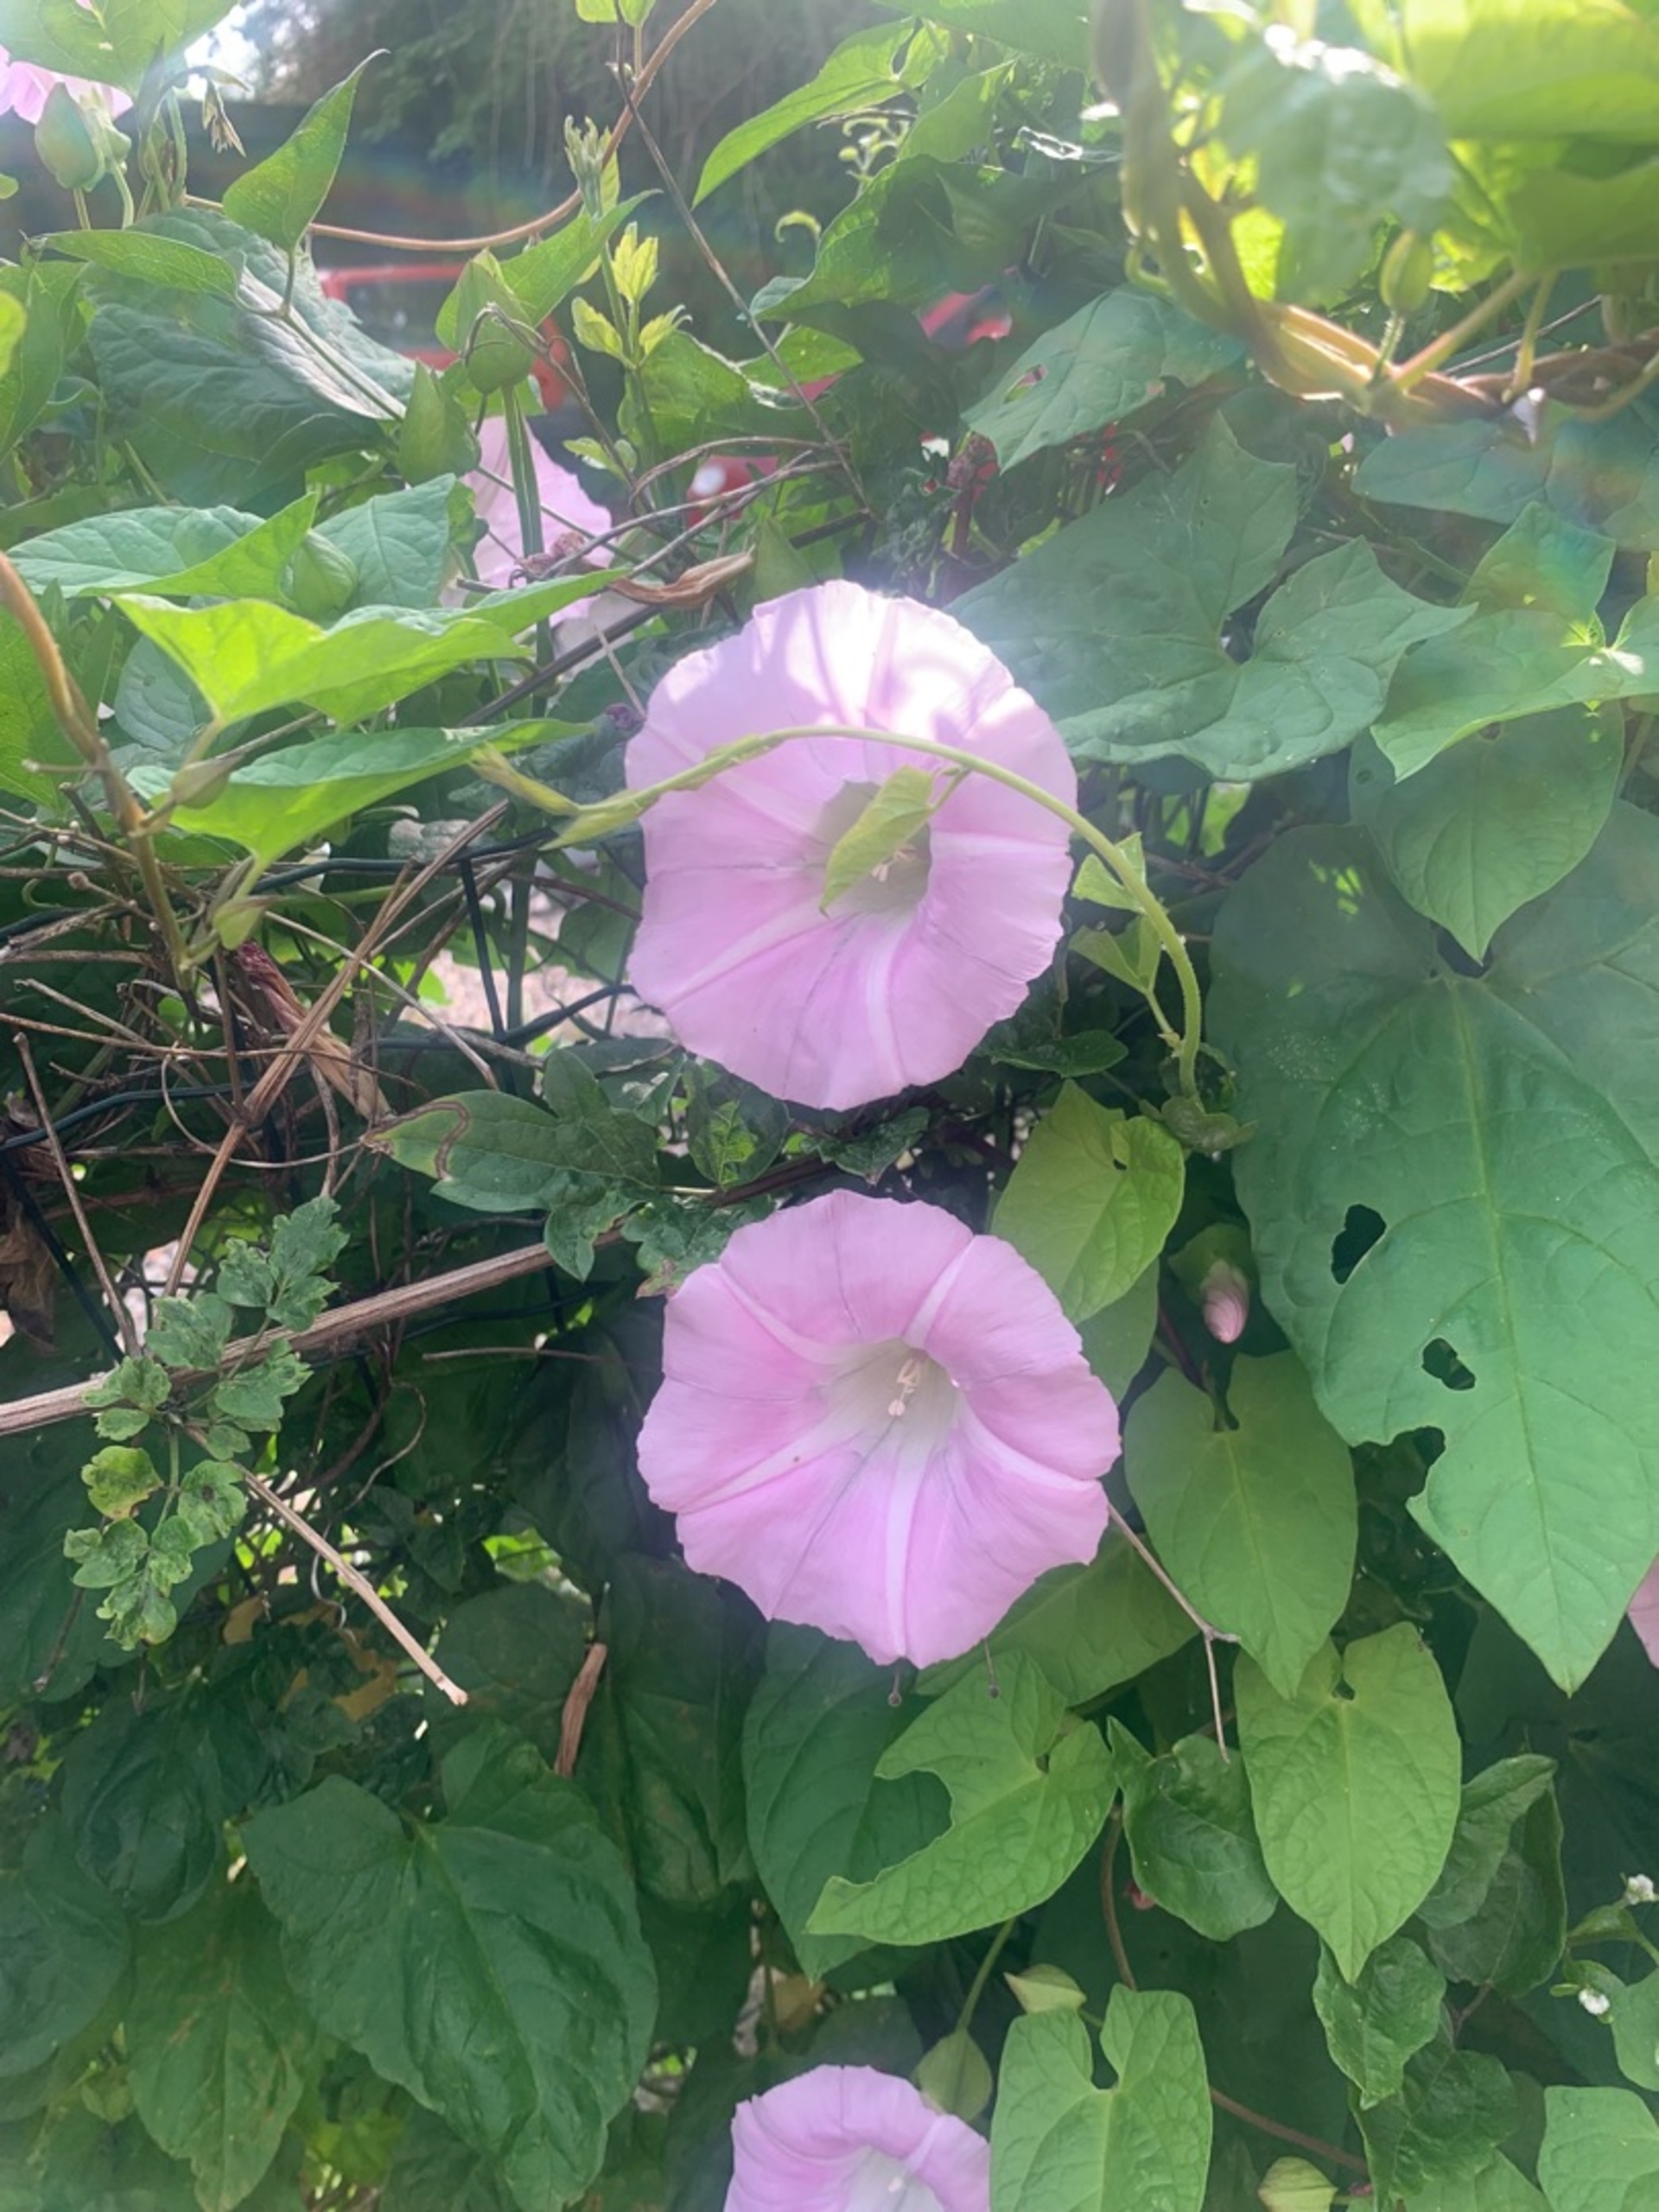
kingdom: Plantae
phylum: Tracheophyta
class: Magnoliopsida
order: Solanales
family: Convolvulaceae
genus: Calystegia
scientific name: Calystegia sepium
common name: Pragt-snerle
